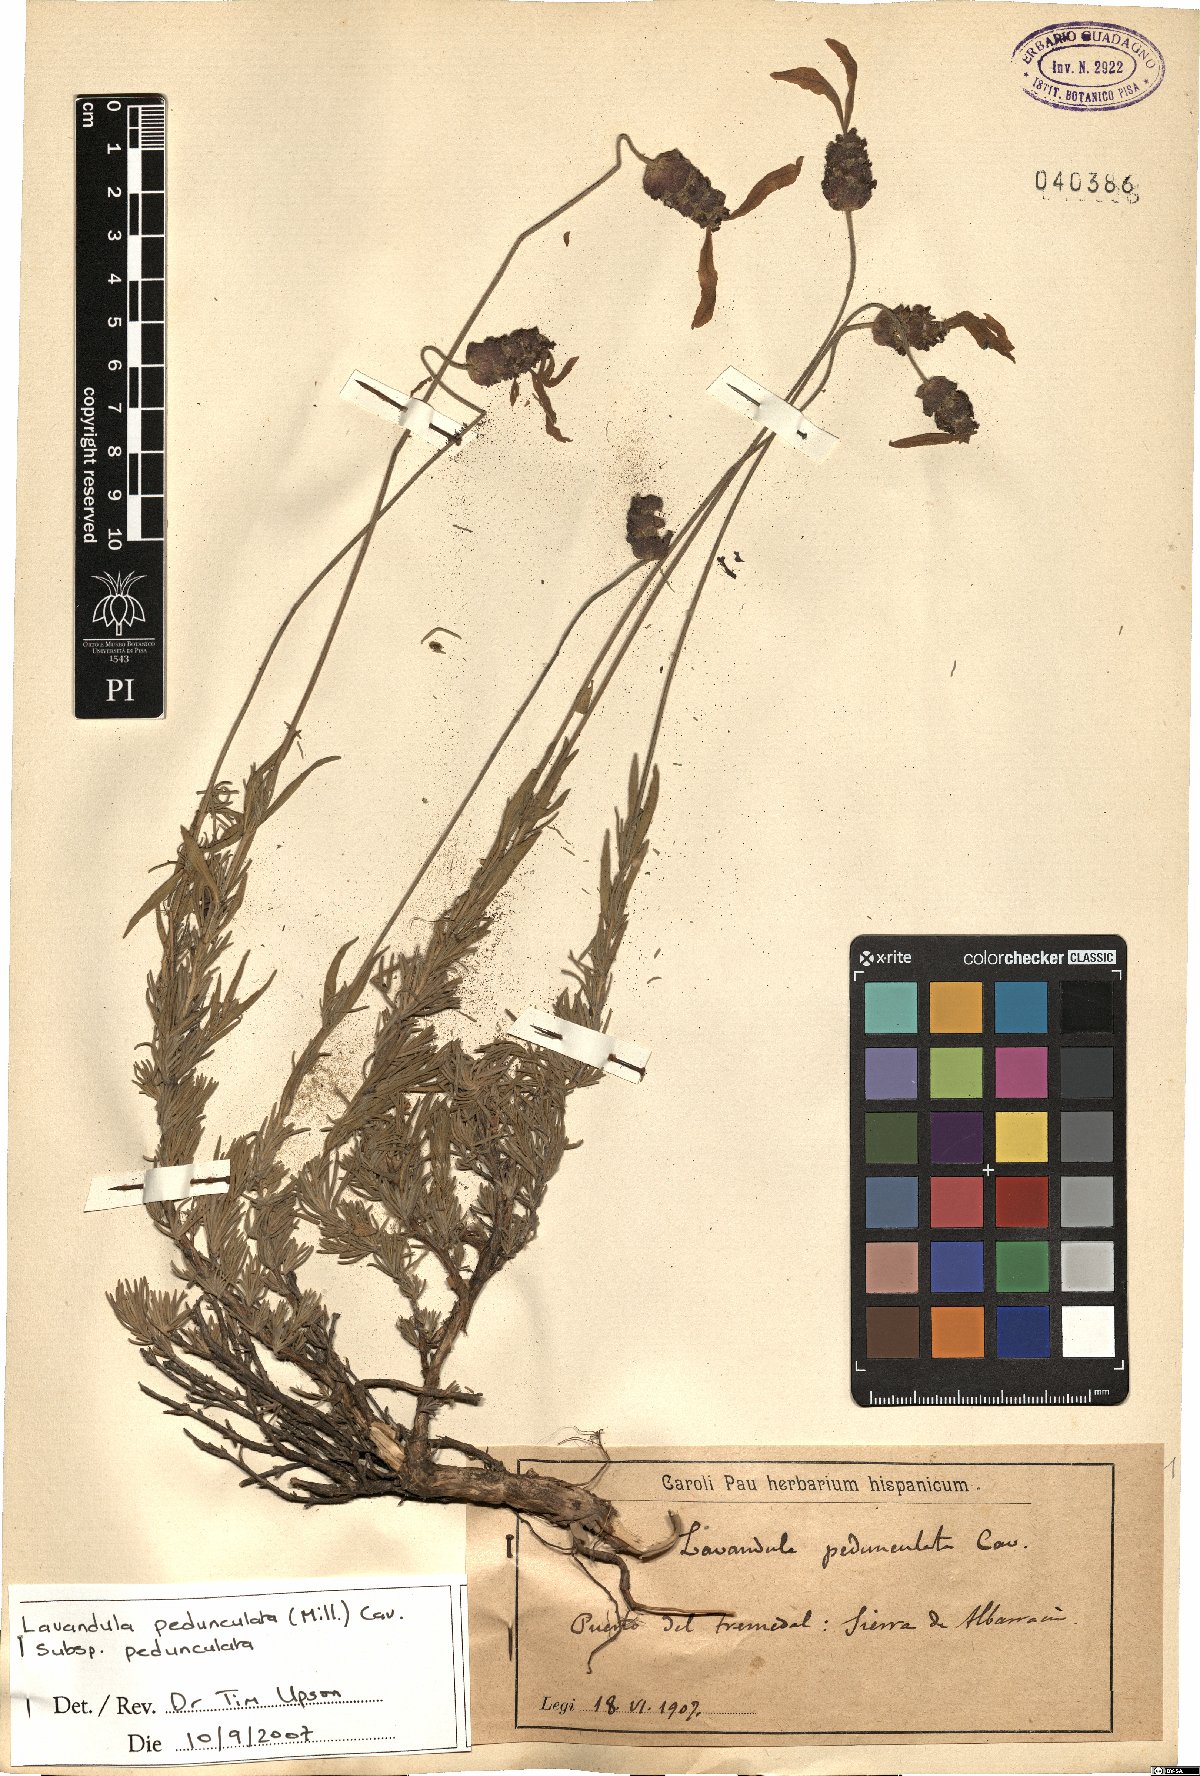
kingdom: Plantae
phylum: Tracheophyta
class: Magnoliopsida
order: Lamiales
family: Lamiaceae
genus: Lavandula
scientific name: Lavandula pedunculata
